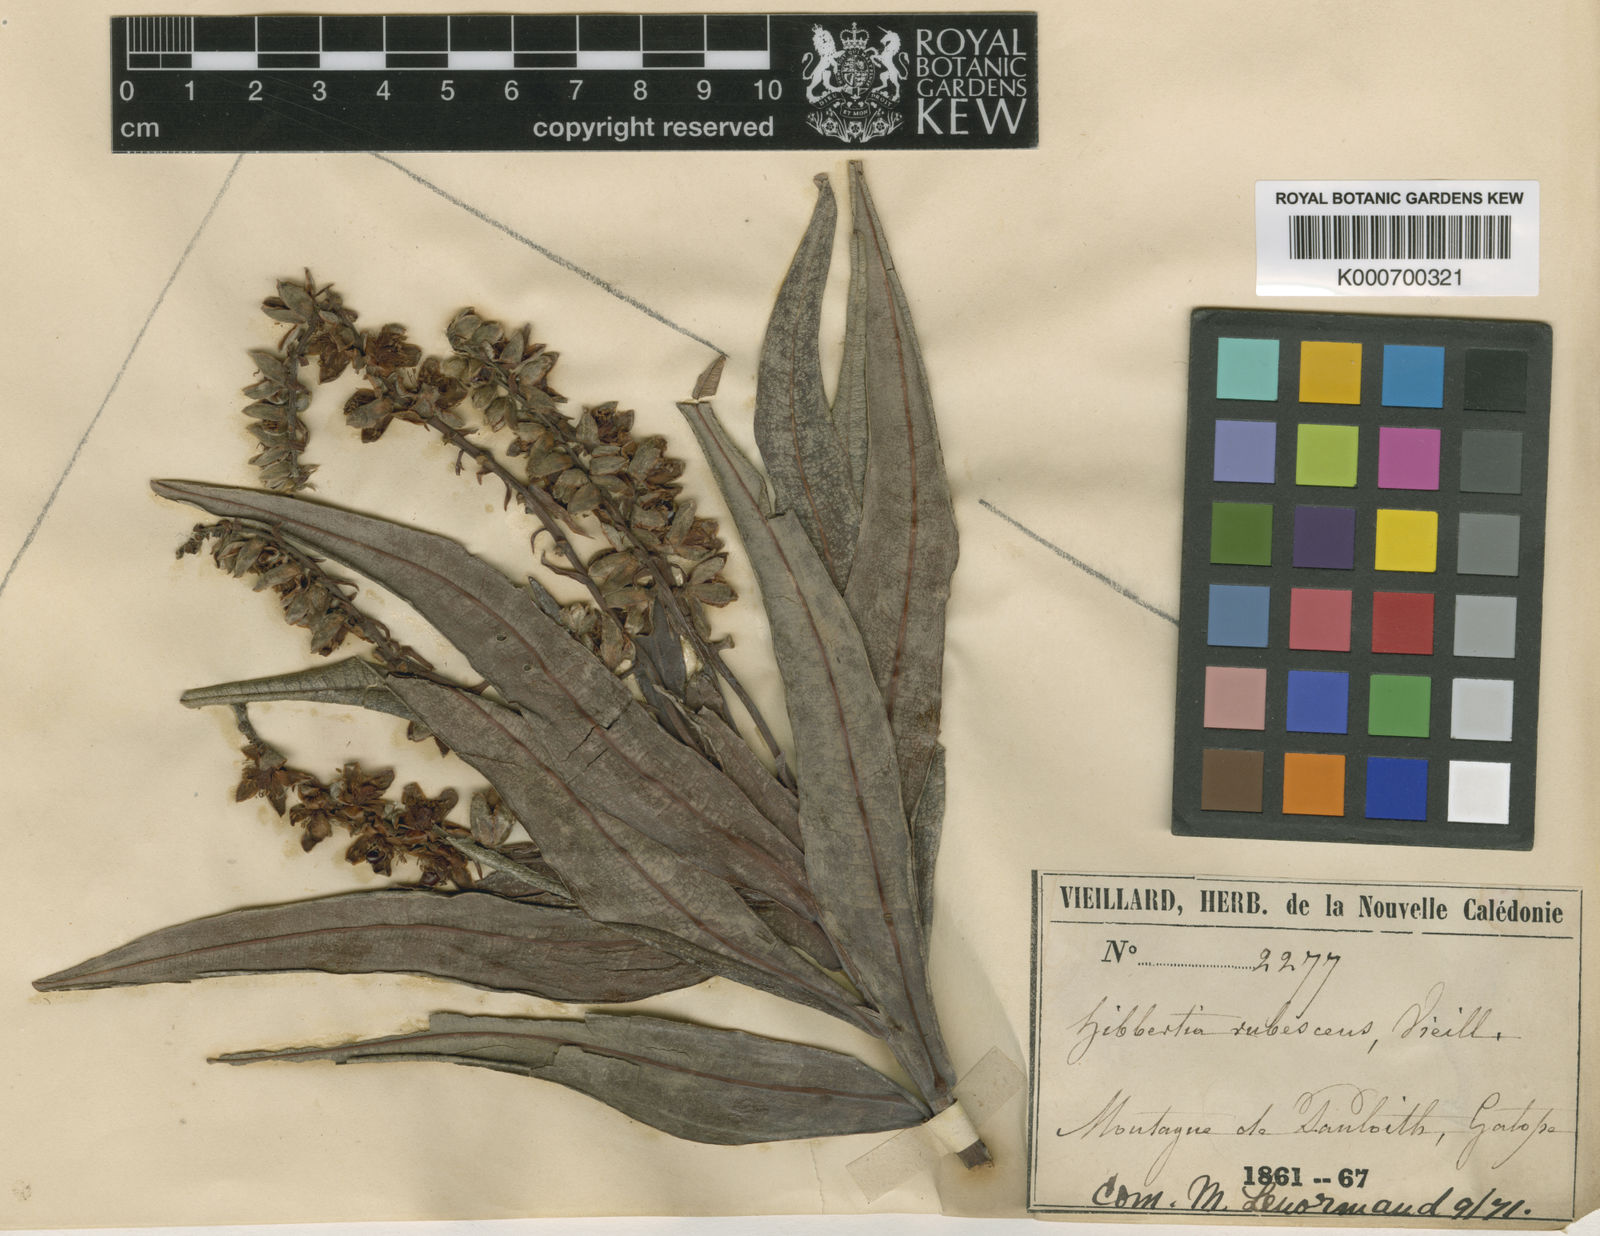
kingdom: Plantae
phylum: Tracheophyta
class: Magnoliopsida
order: Dilleniales
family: Dilleniaceae
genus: Hibbertia
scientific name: Hibbertia rubescens
